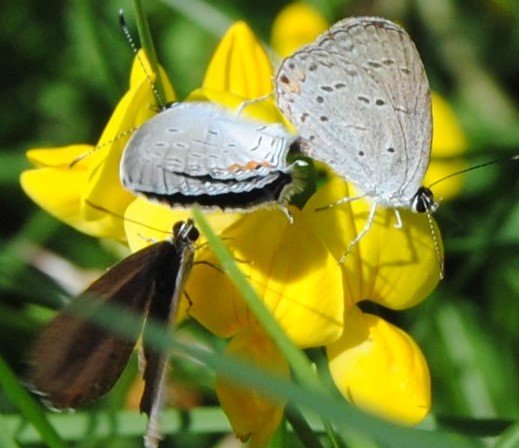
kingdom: Animalia
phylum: Arthropoda
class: Insecta
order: Lepidoptera
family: Lycaenidae
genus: Elkalyce
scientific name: Elkalyce comyntas
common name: Eastern Tailed-Blue
